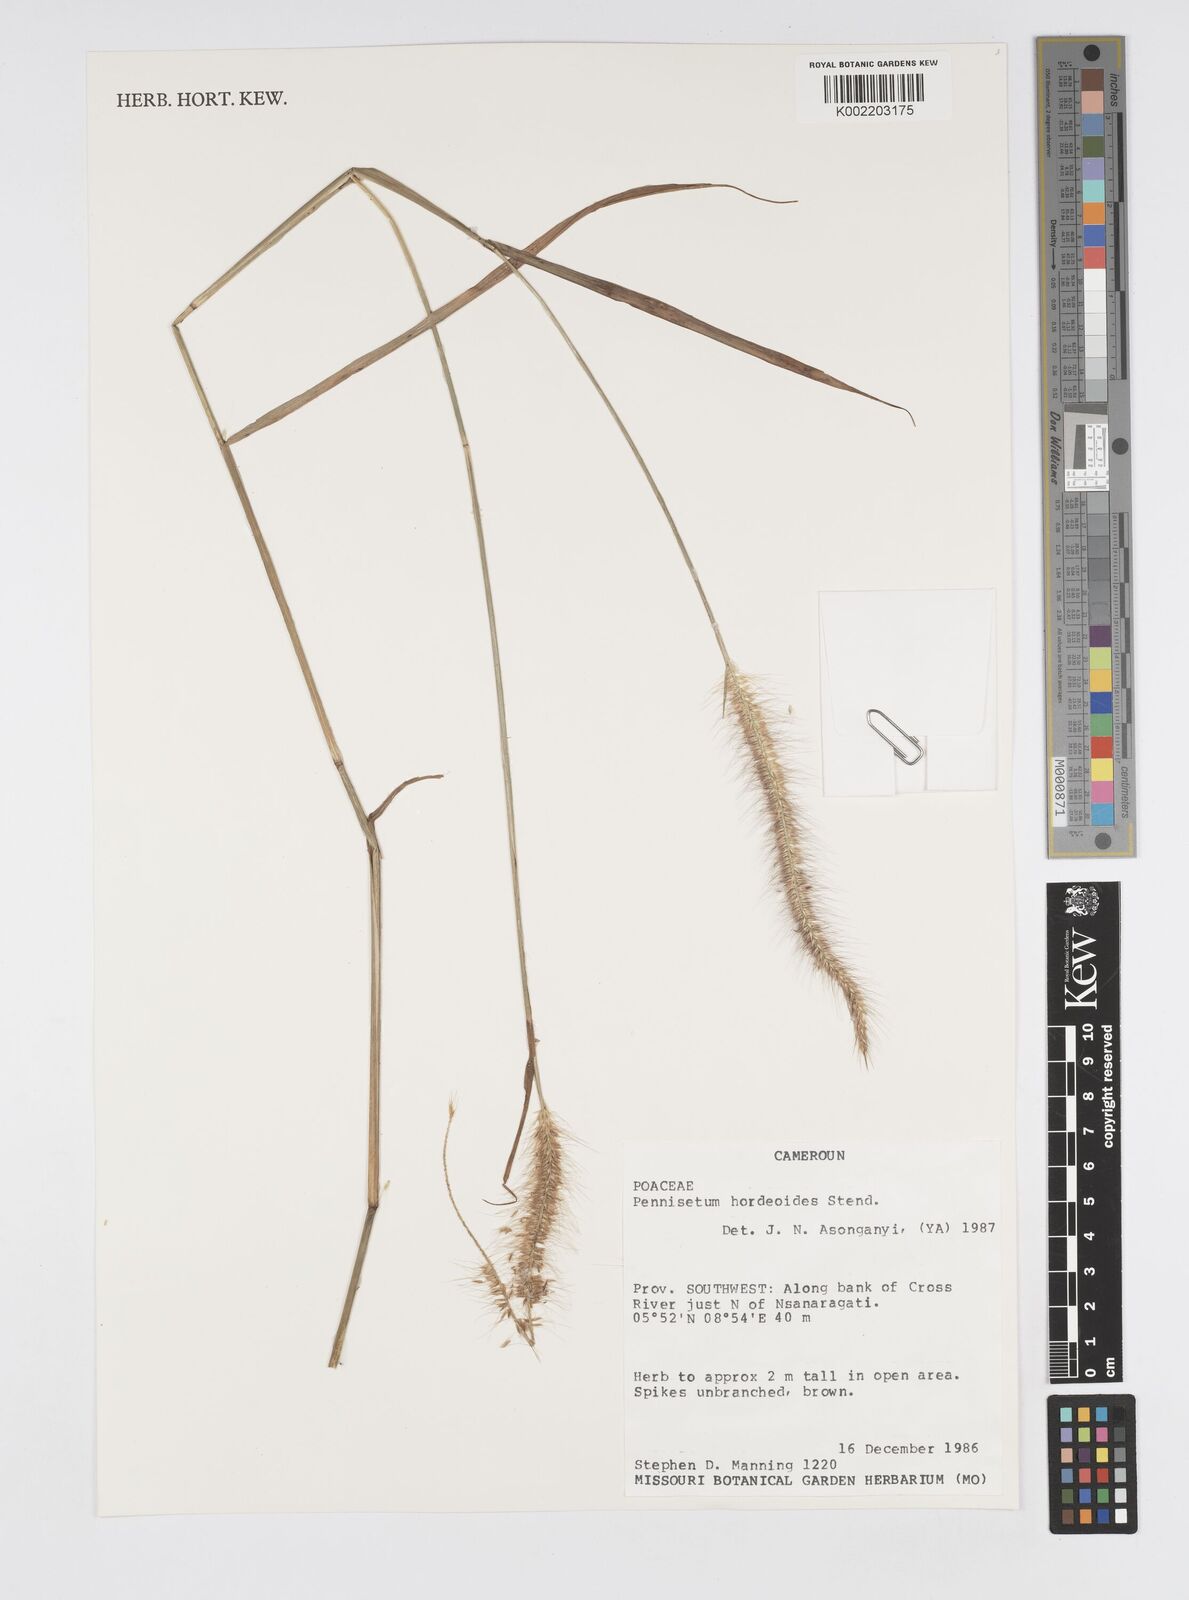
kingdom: Plantae
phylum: Tracheophyta
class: Liliopsida
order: Poales
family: Poaceae
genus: Cenchrus
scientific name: Cenchrus hordeoides
